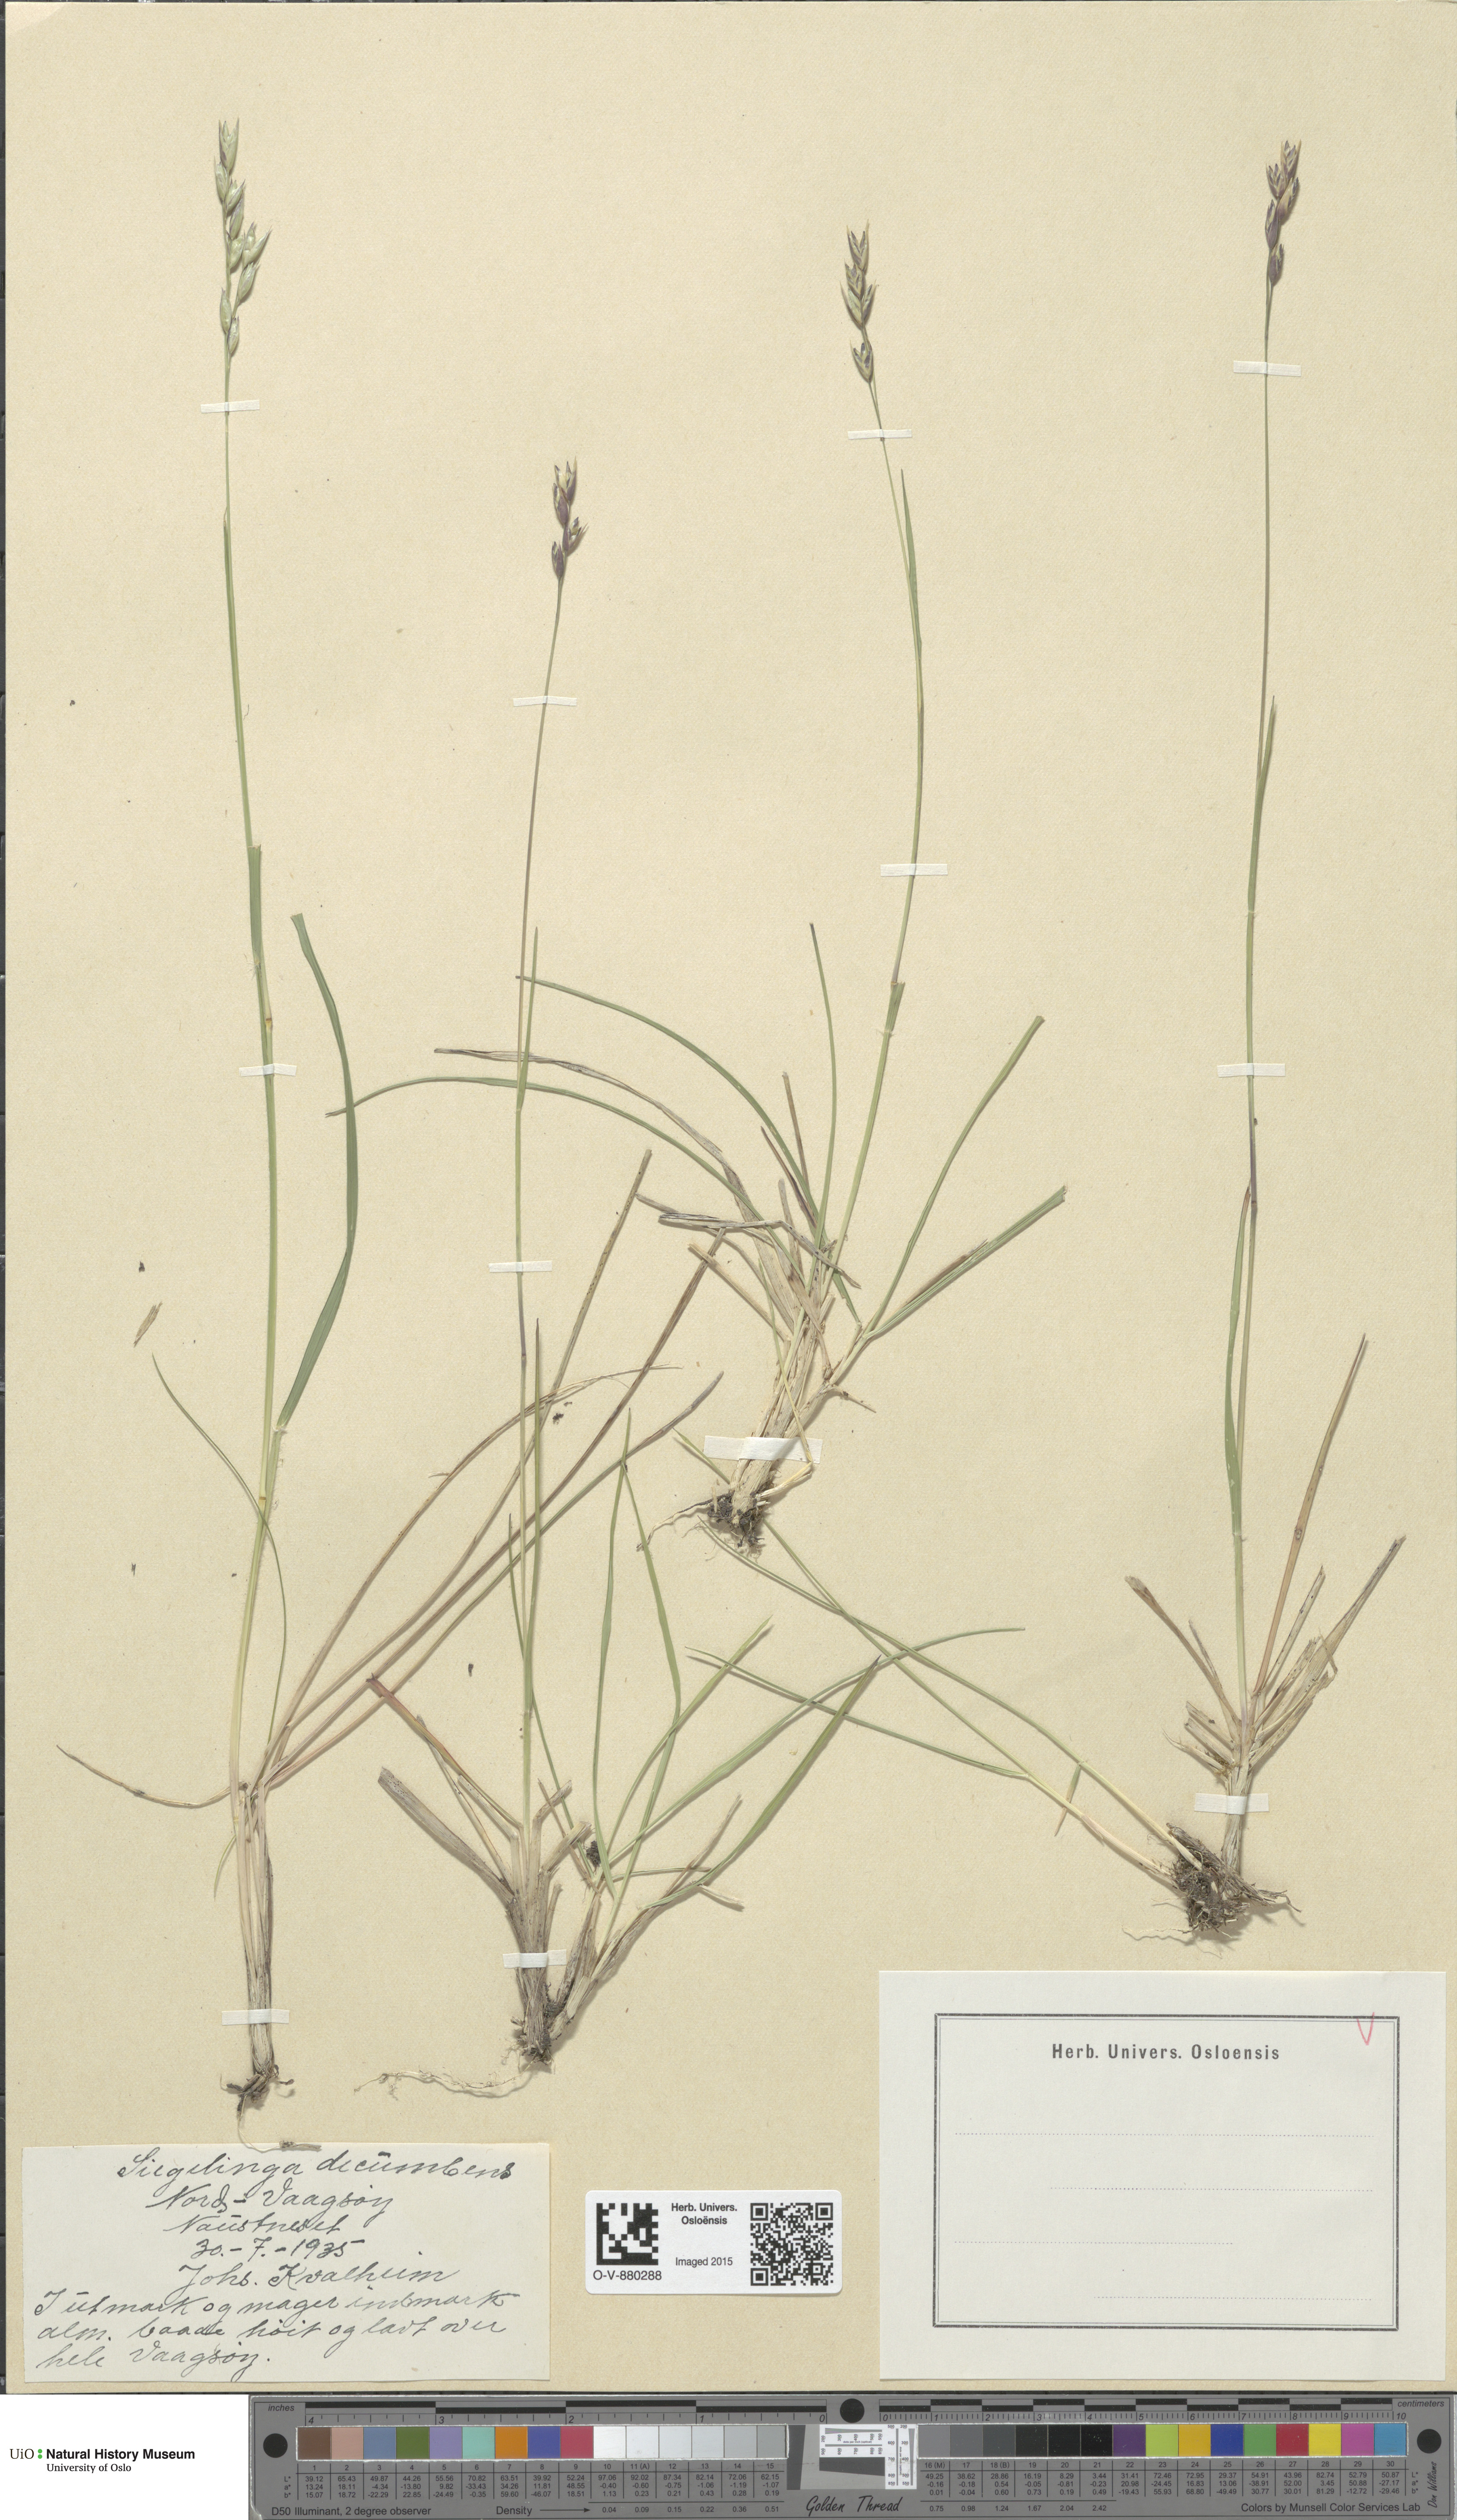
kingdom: Plantae
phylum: Tracheophyta
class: Liliopsida
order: Poales
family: Poaceae
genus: Danthonia
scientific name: Danthonia decumbens
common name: Common heathgrass
